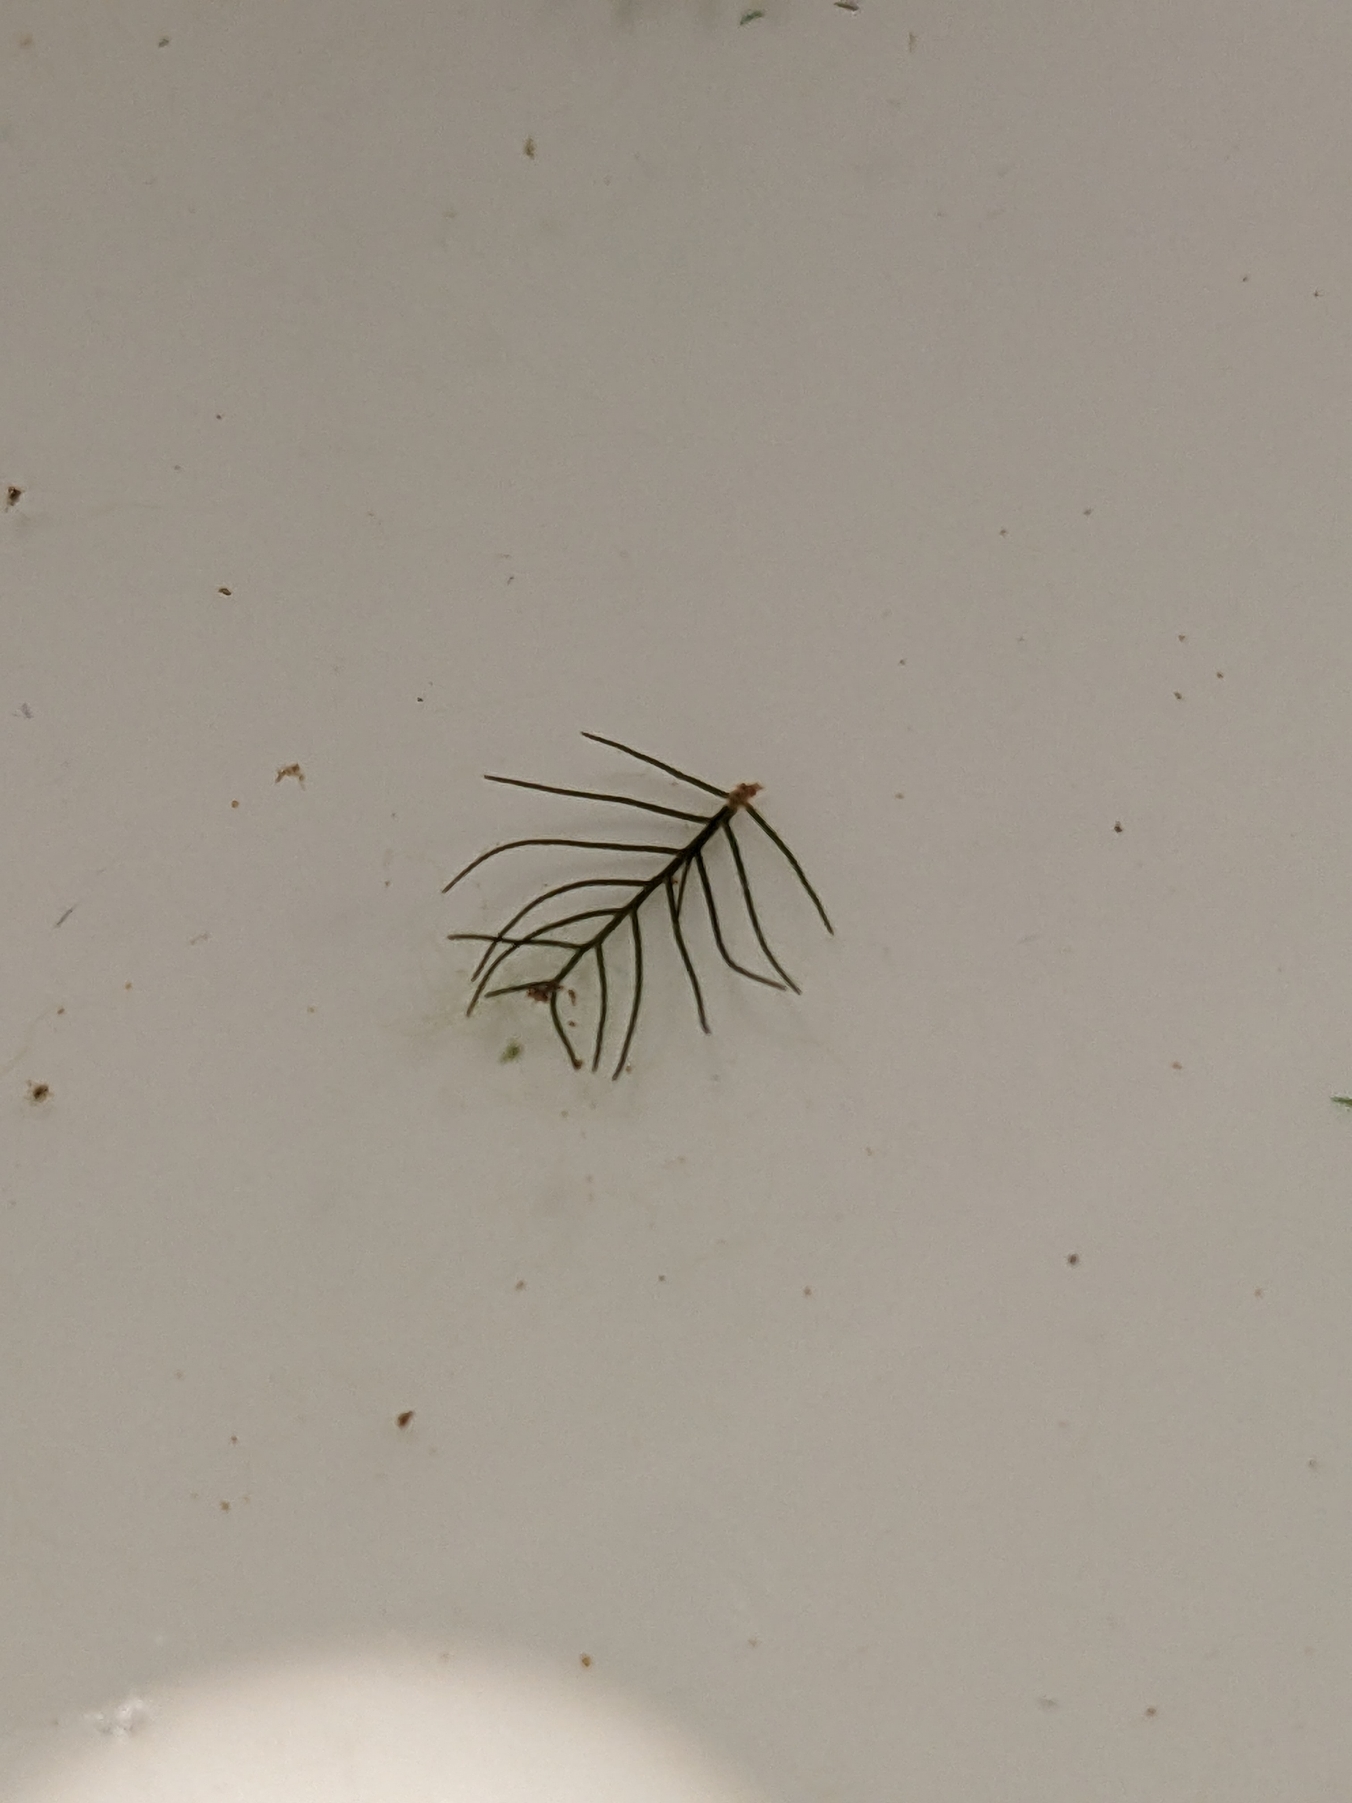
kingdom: Plantae
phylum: Tracheophyta
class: Magnoliopsida
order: Saxifragales
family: Haloragaceae
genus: Myriophyllum
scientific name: Myriophyllum alterniflorum
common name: Hår-tusindblad
